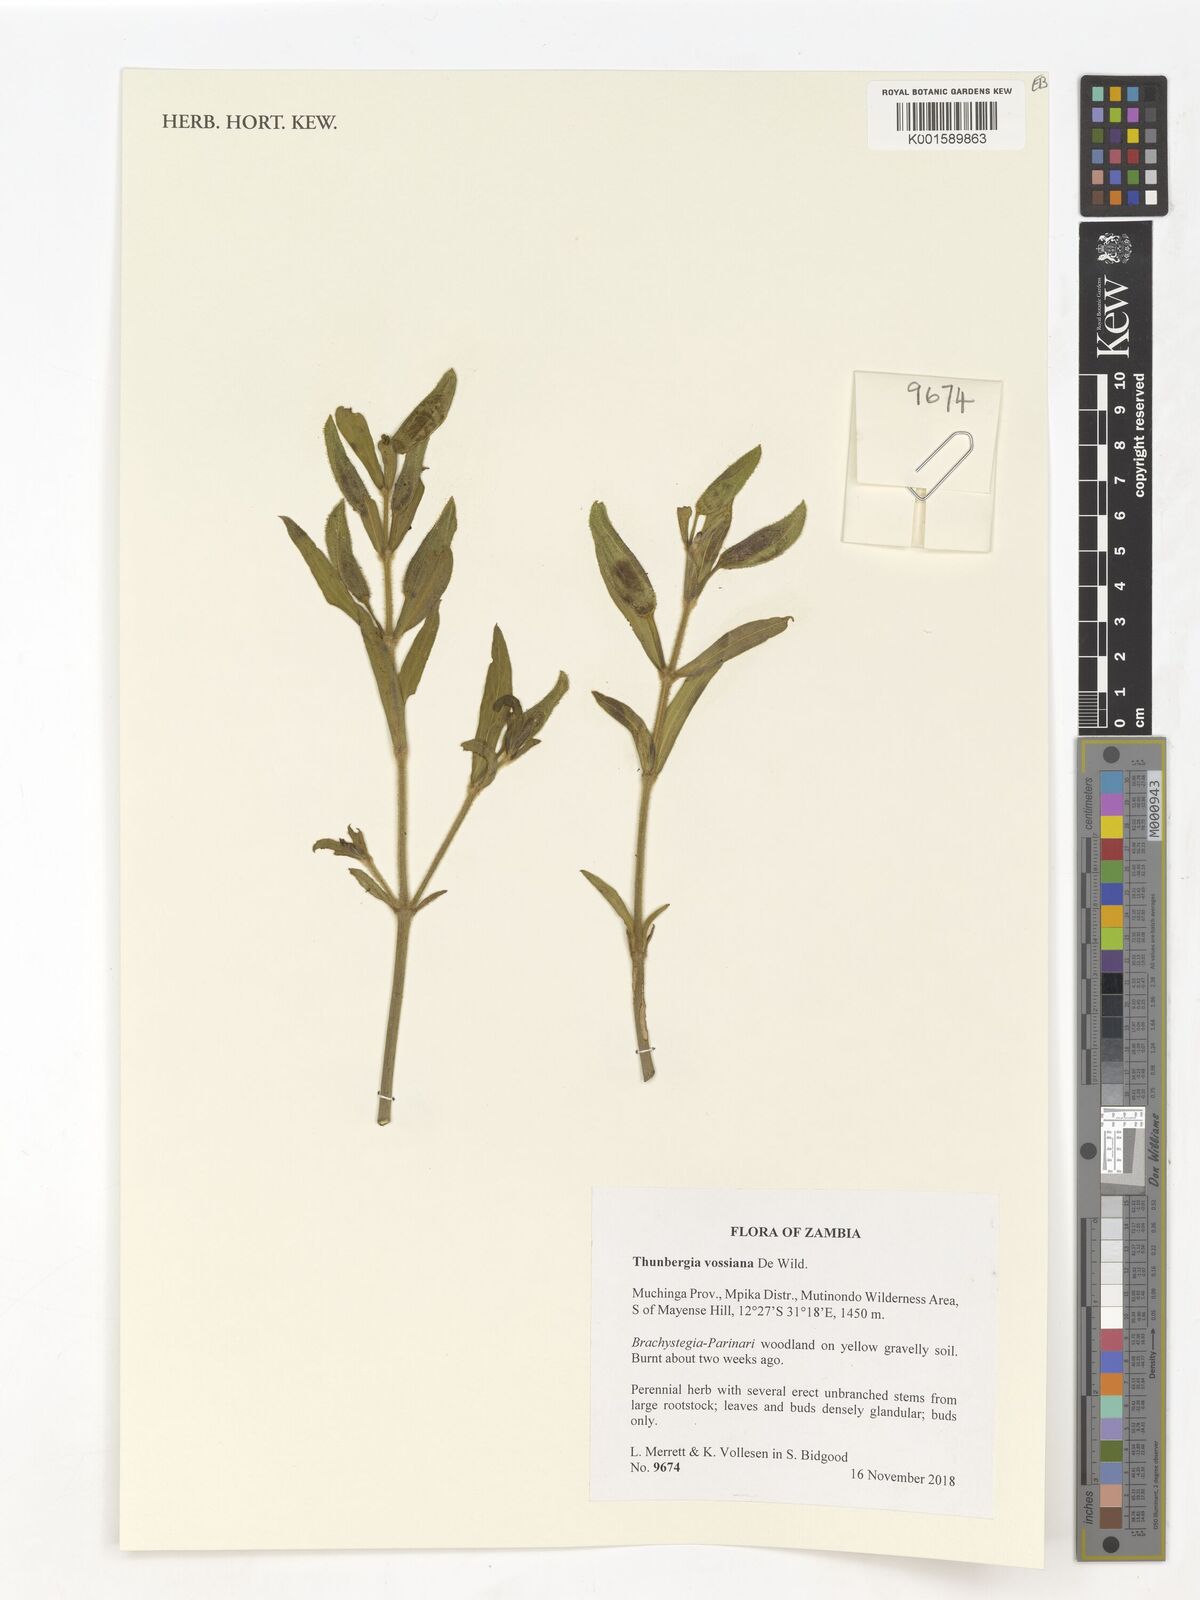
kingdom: Plantae
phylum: Tracheophyta
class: Magnoliopsida
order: Lamiales
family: Acanthaceae
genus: Thunbergia
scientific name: Thunbergia vossiana
